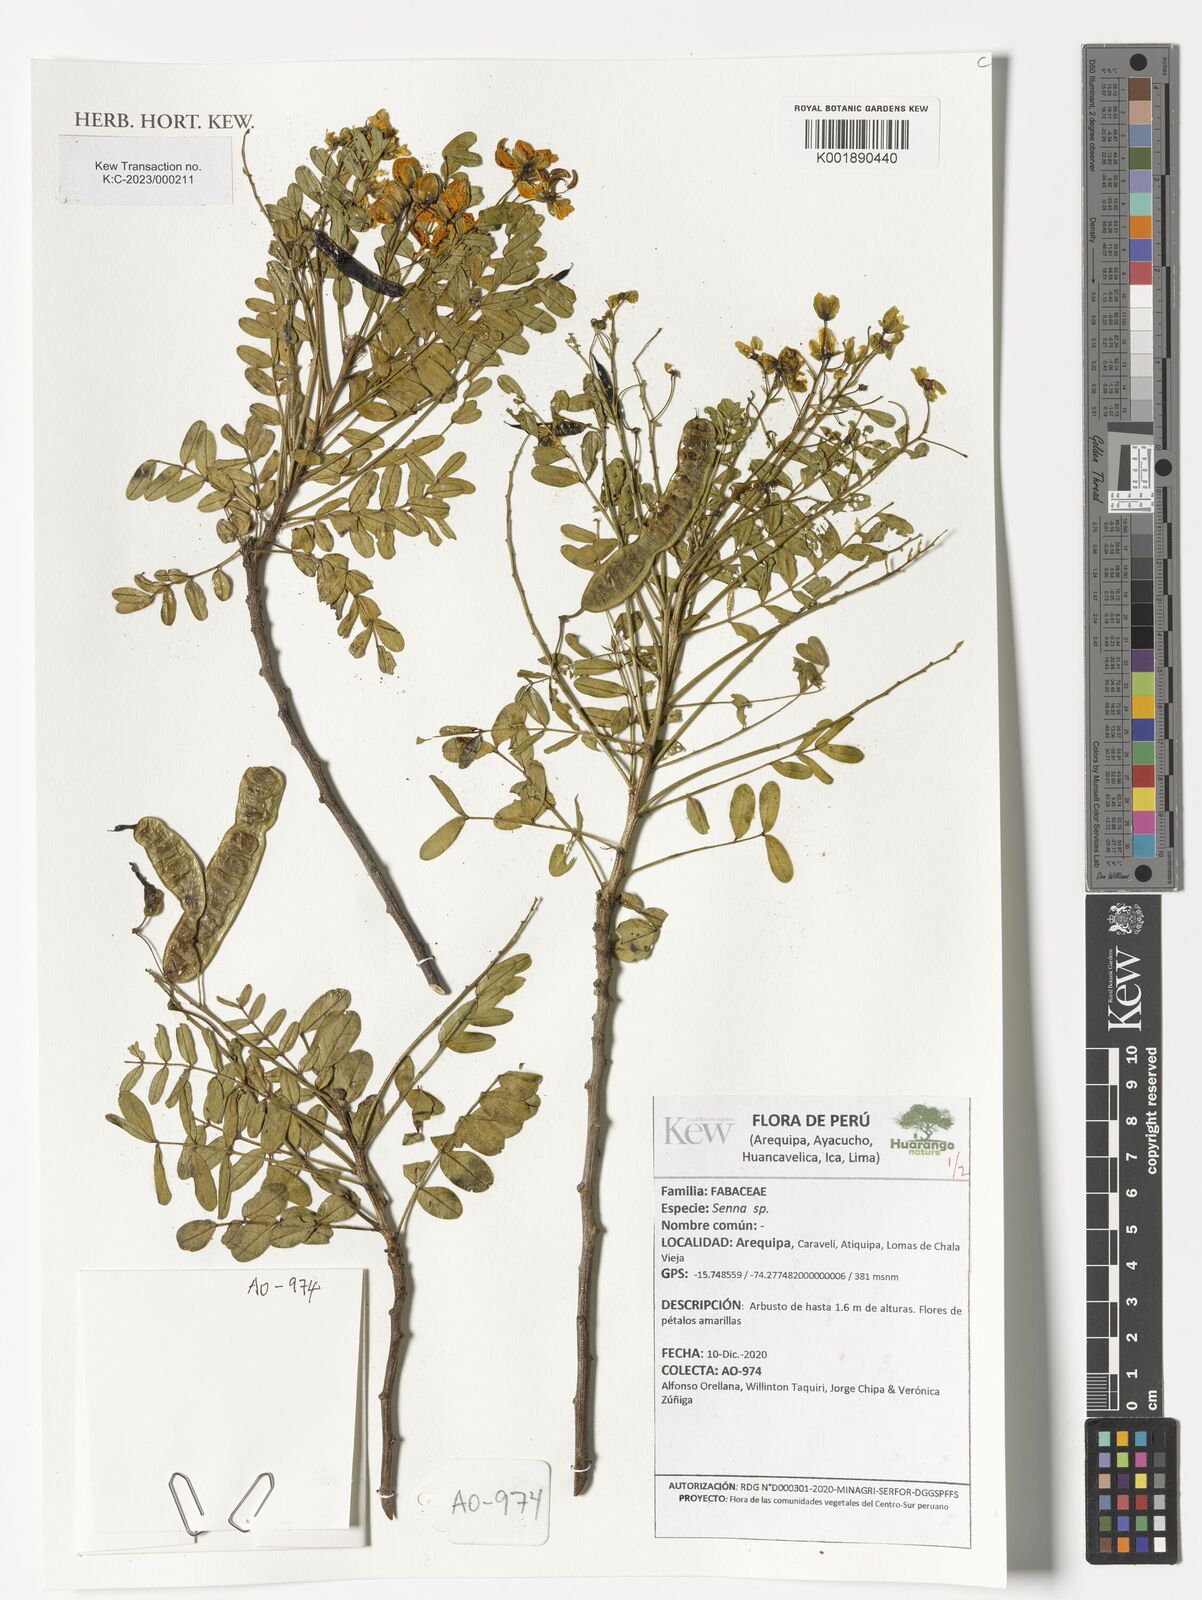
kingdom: Plantae
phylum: Tracheophyta
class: Magnoliopsida
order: Fabales
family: Fabaceae
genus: Senna
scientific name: Senna
